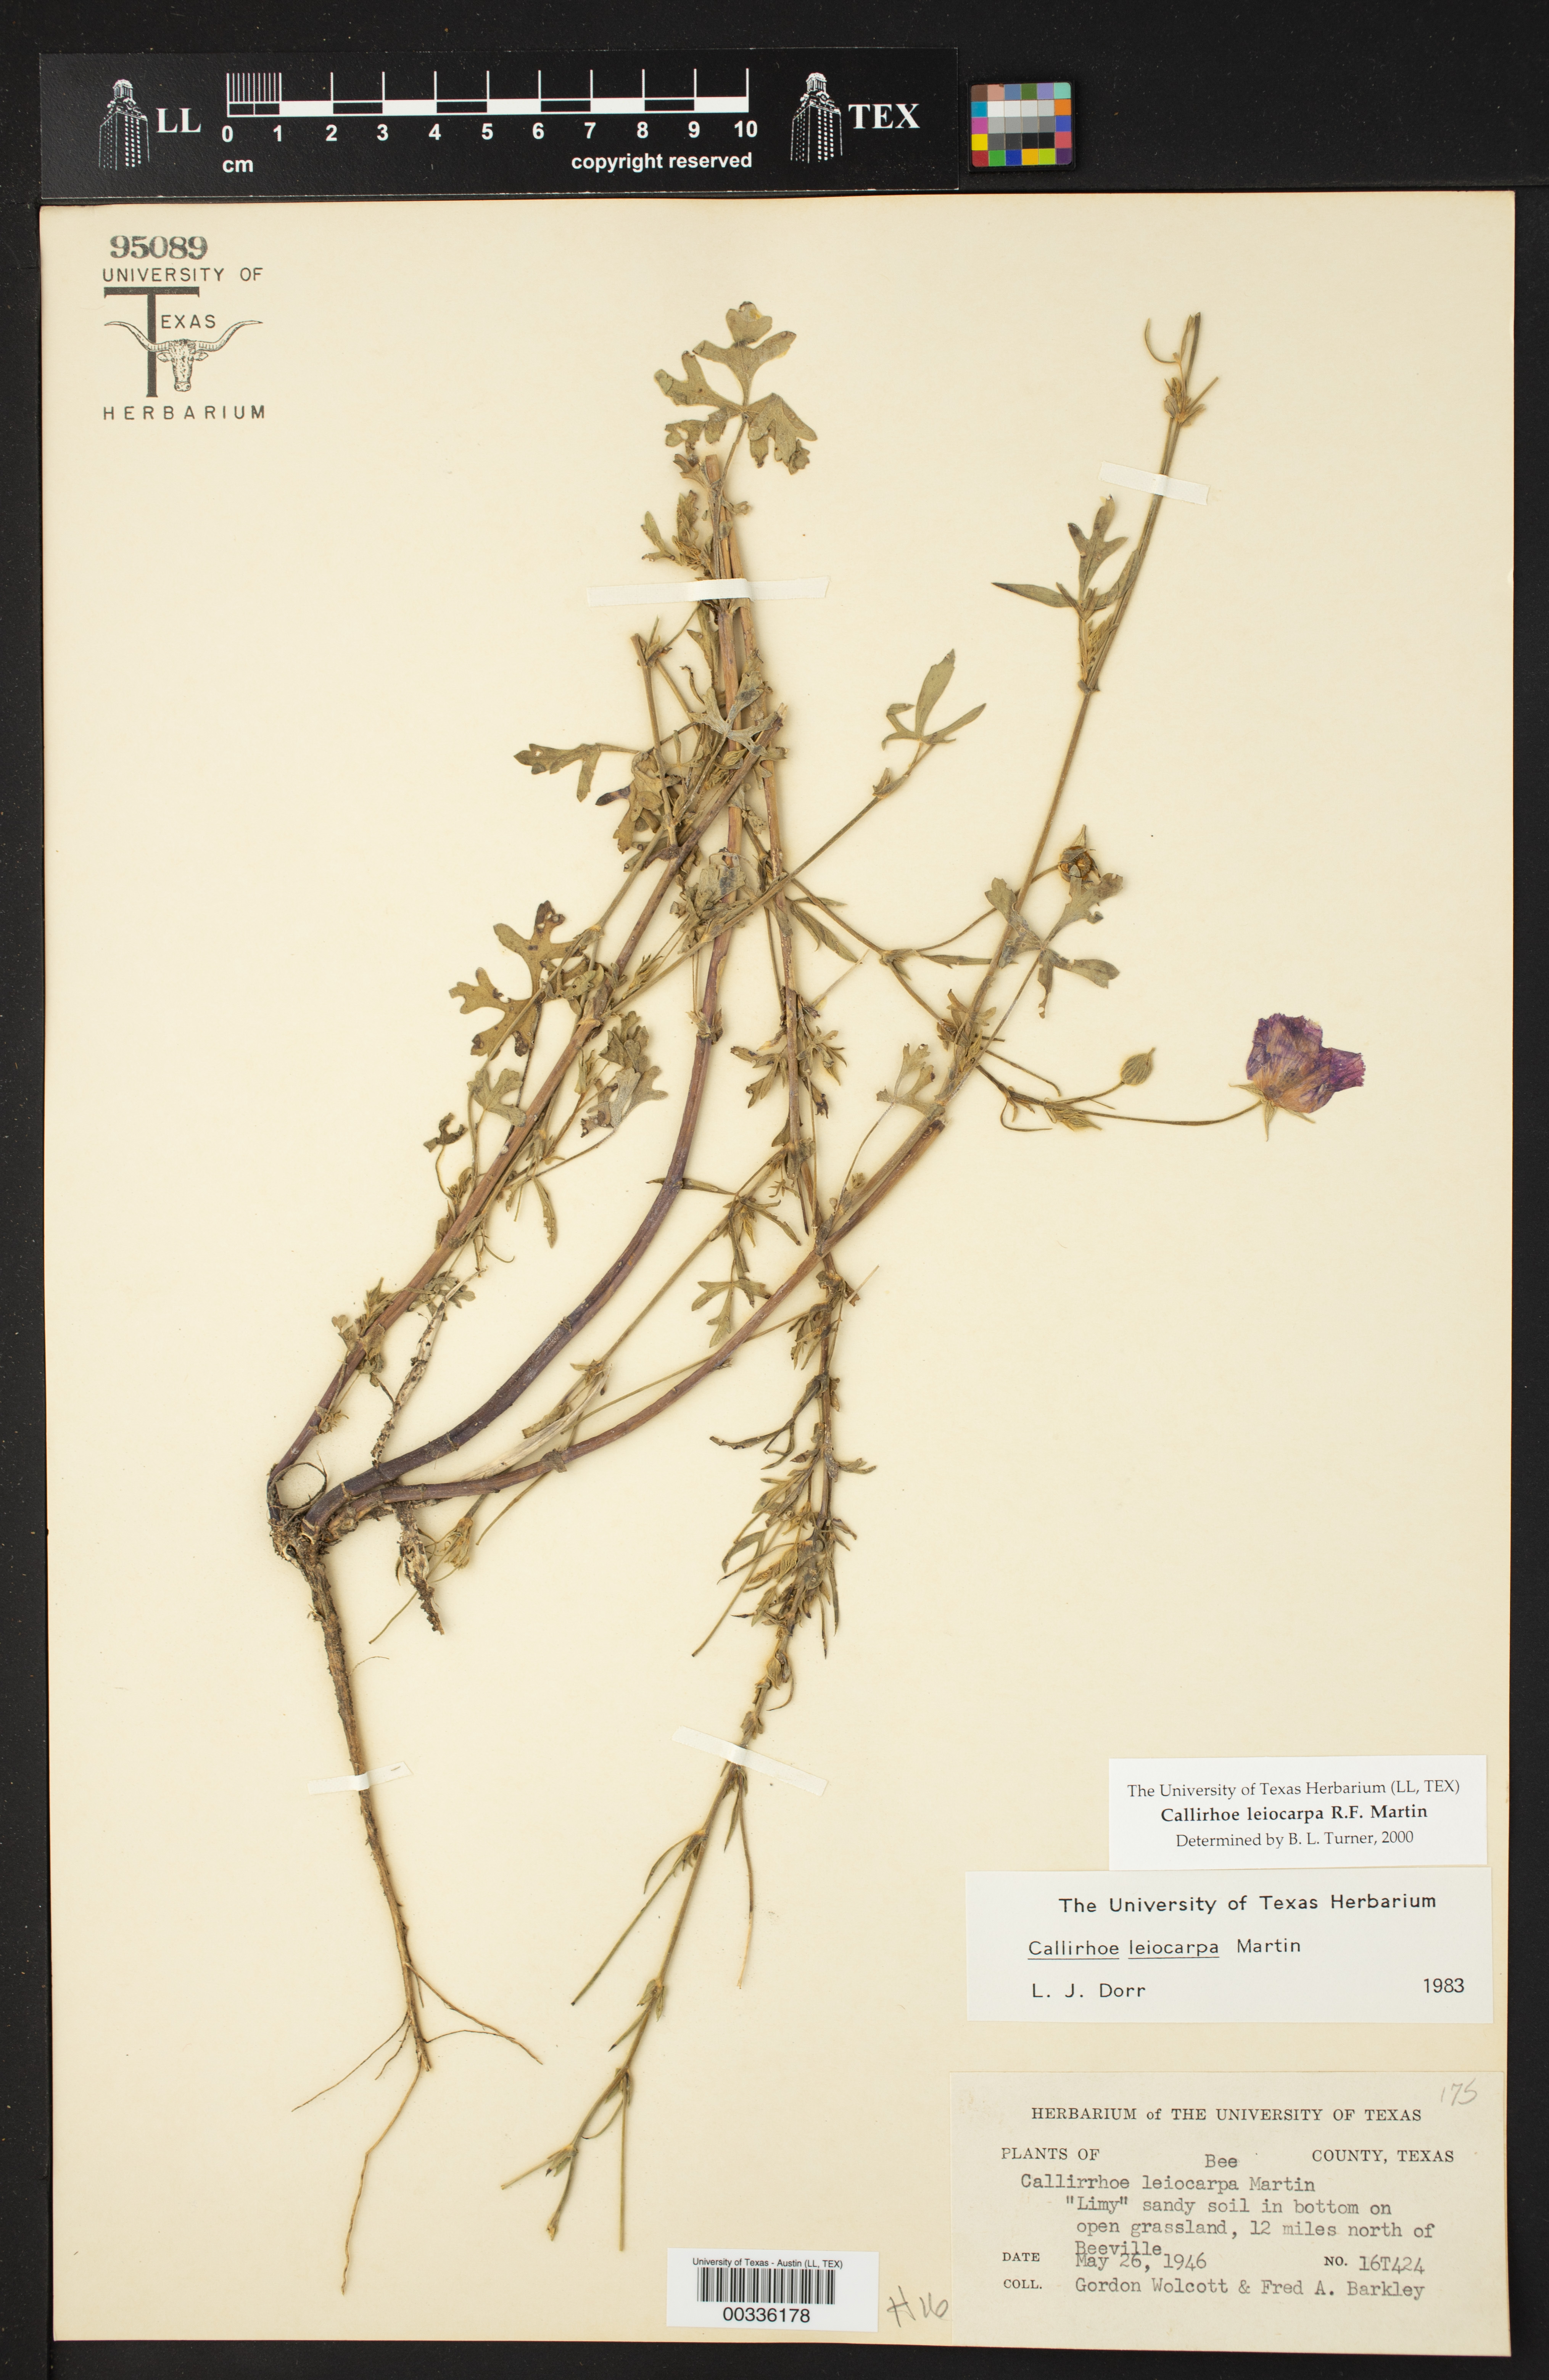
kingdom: Plantae
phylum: Tracheophyta
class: Magnoliopsida
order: Malvales
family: Malvaceae
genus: Callirhoe
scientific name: Callirhoe leiocarpa
